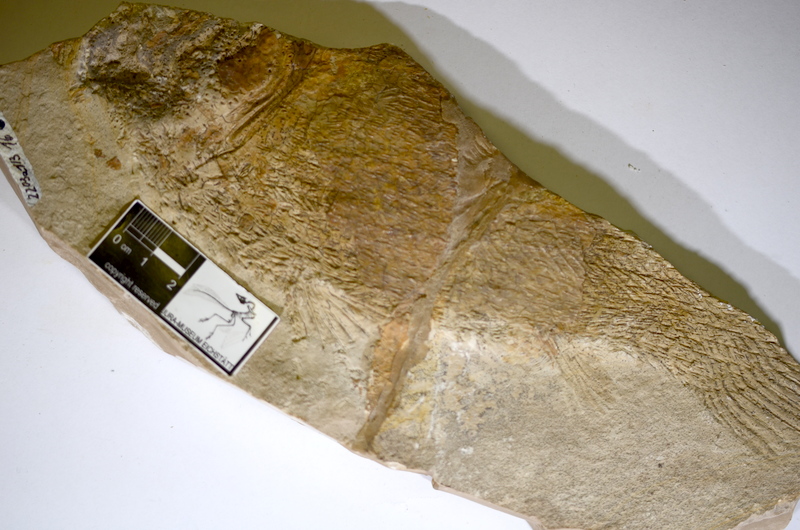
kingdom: Animalia
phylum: Chordata
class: Coelacanthi
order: Coelacanthiformes
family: Latimeroidea
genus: Macropoma
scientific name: Macropoma willemoesii
